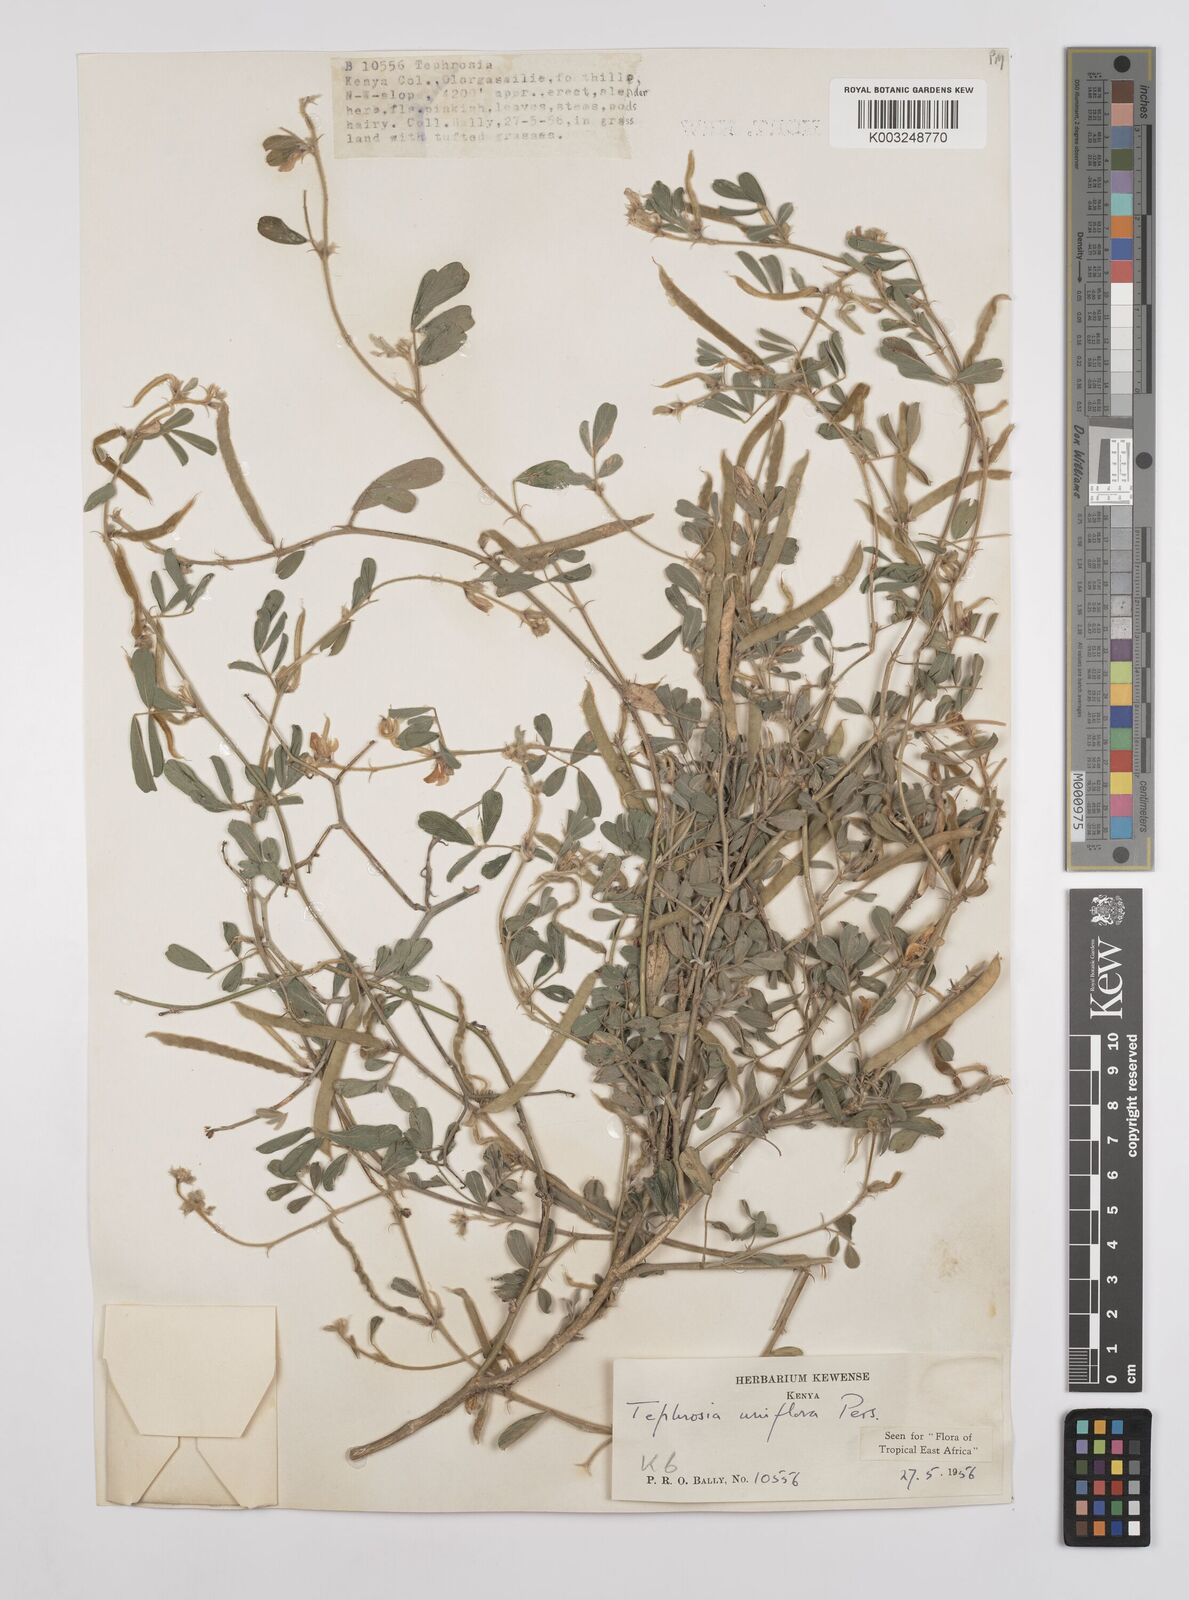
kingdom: Plantae
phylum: Tracheophyta
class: Magnoliopsida
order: Fabales
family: Fabaceae
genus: Tephrosia
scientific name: Tephrosia uniflora
